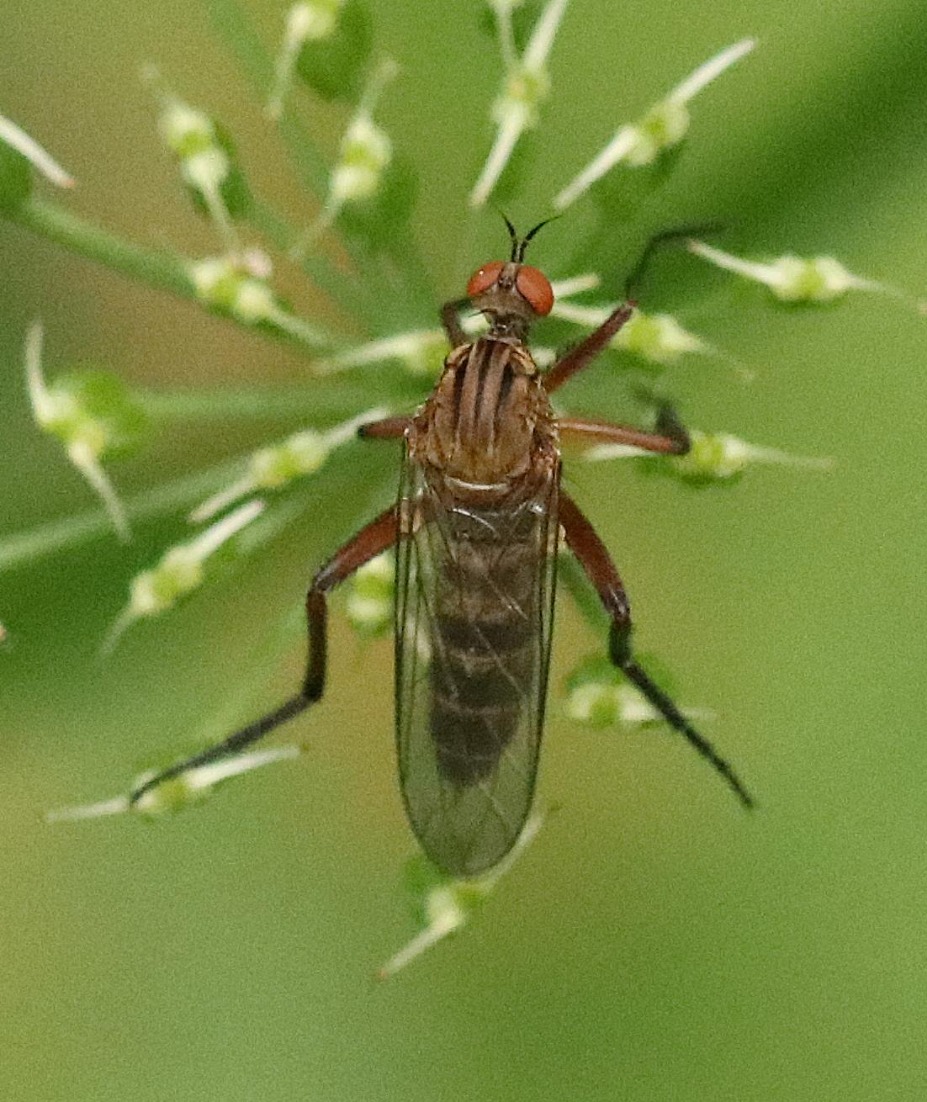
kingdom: Animalia
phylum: Arthropoda
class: Insecta
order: Diptera
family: Empididae
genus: Empis
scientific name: Empis livida
